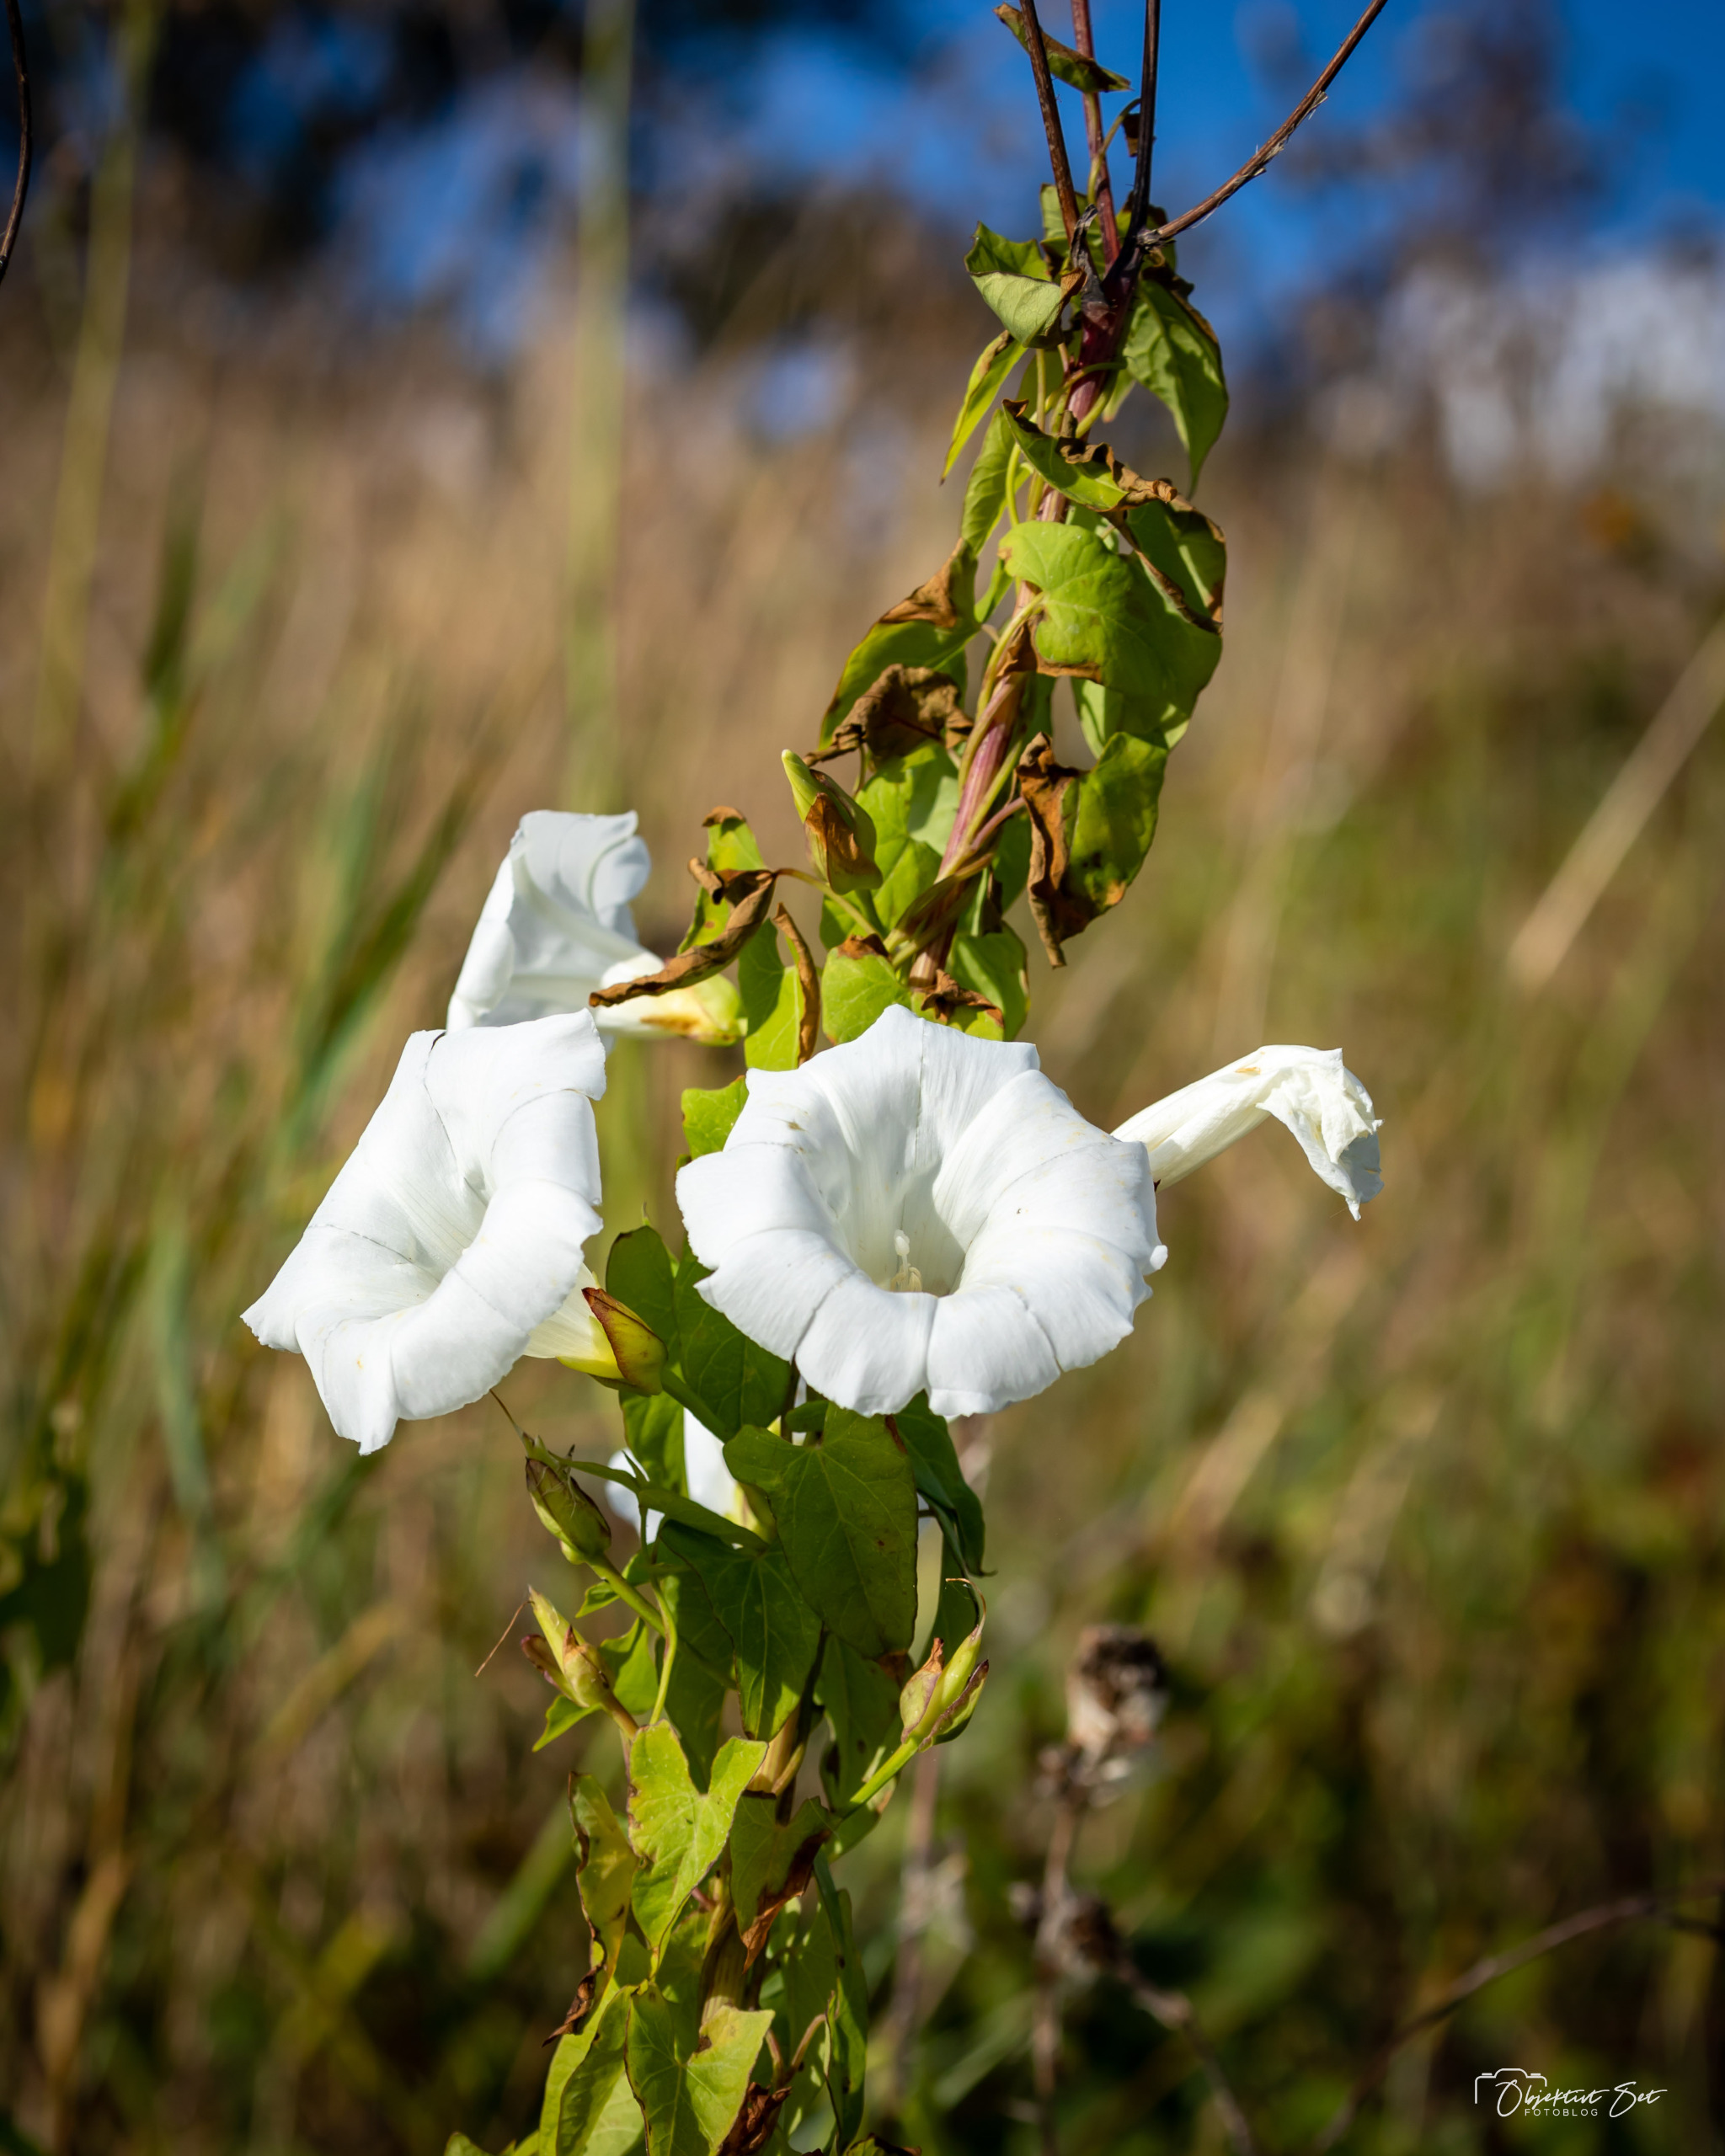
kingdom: Plantae
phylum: Tracheophyta
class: Magnoliopsida
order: Solanales
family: Convolvulaceae
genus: Calystegia
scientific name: Calystegia sepium
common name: Gærde-snerle
